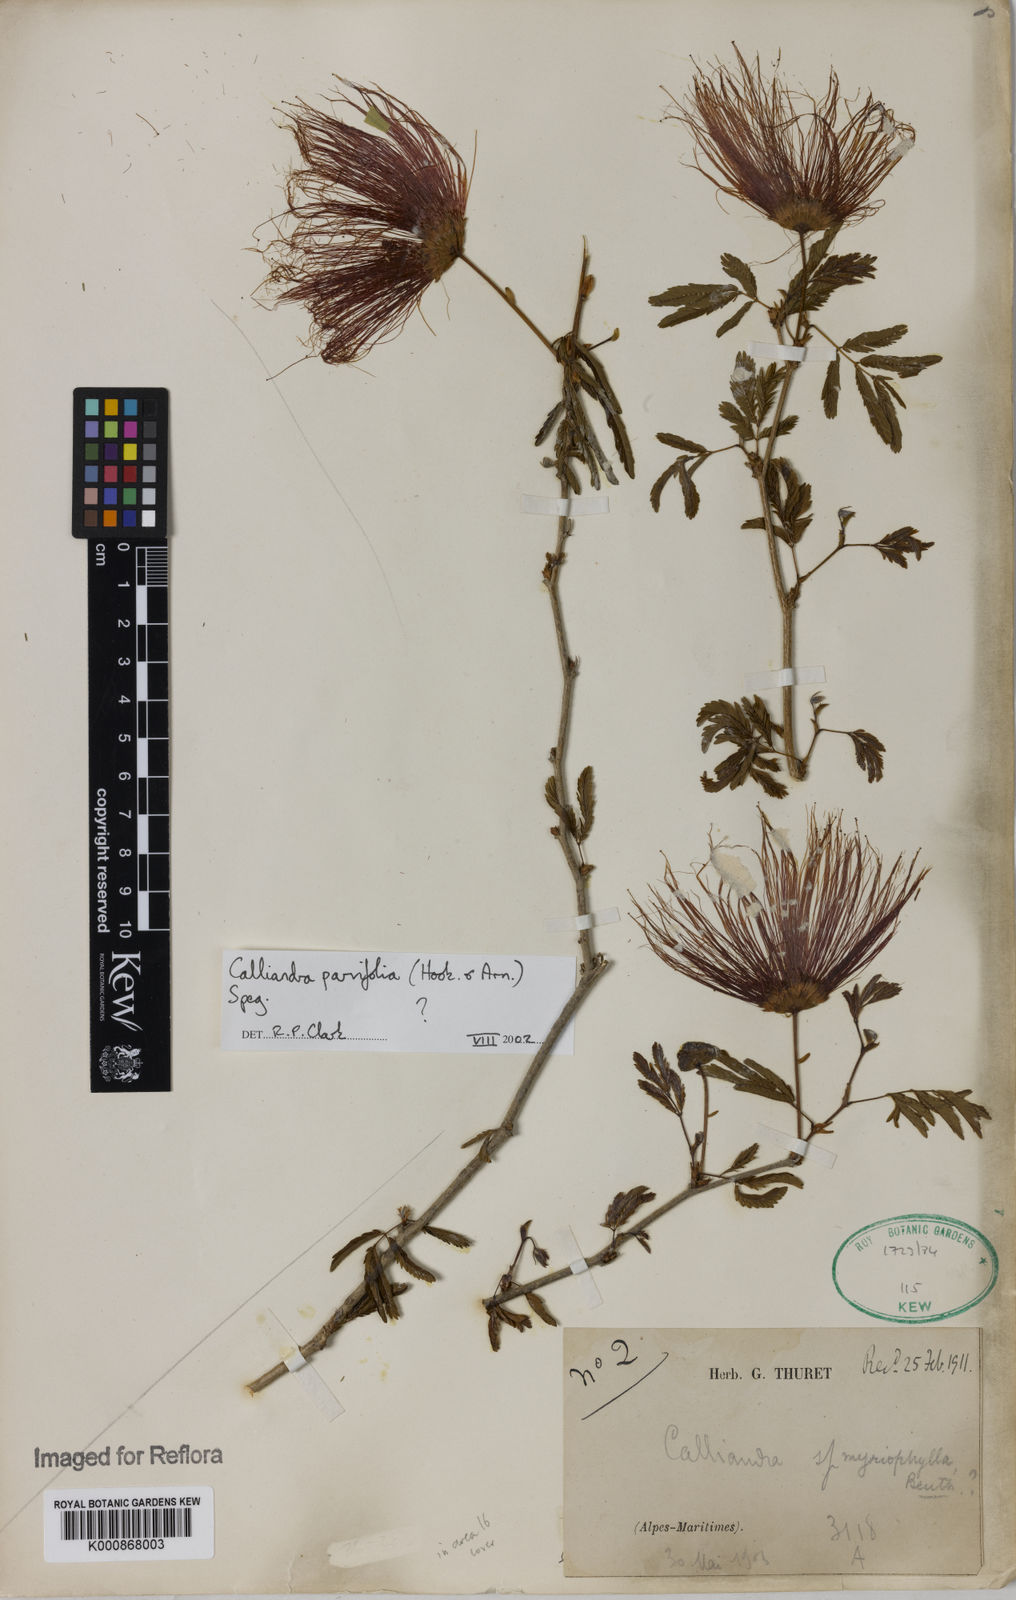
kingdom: Plantae
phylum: Tracheophyta
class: Magnoliopsida
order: Fabales
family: Fabaceae
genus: Calliandra
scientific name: Calliandra parvifolia
